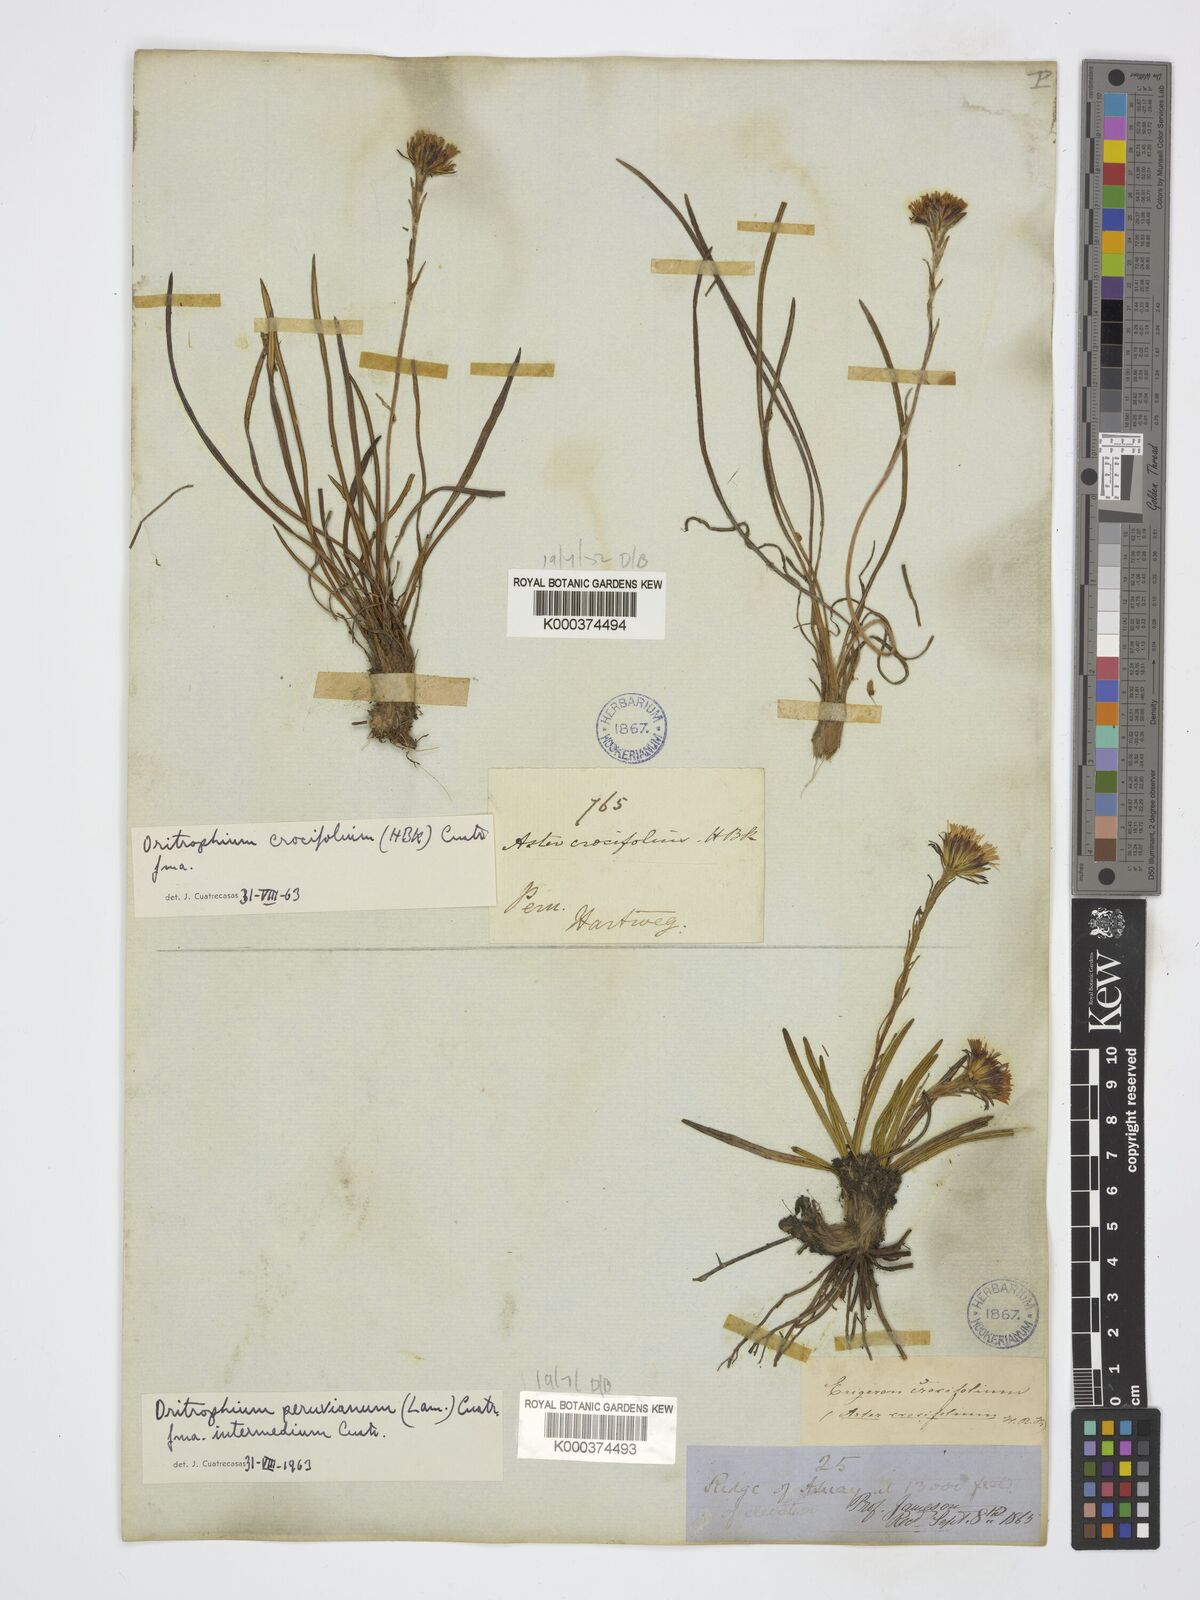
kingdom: Plantae
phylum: Tracheophyta
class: Magnoliopsida
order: Asterales
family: Asteraceae
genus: Oritrophium
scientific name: Oritrophium crocifolium
